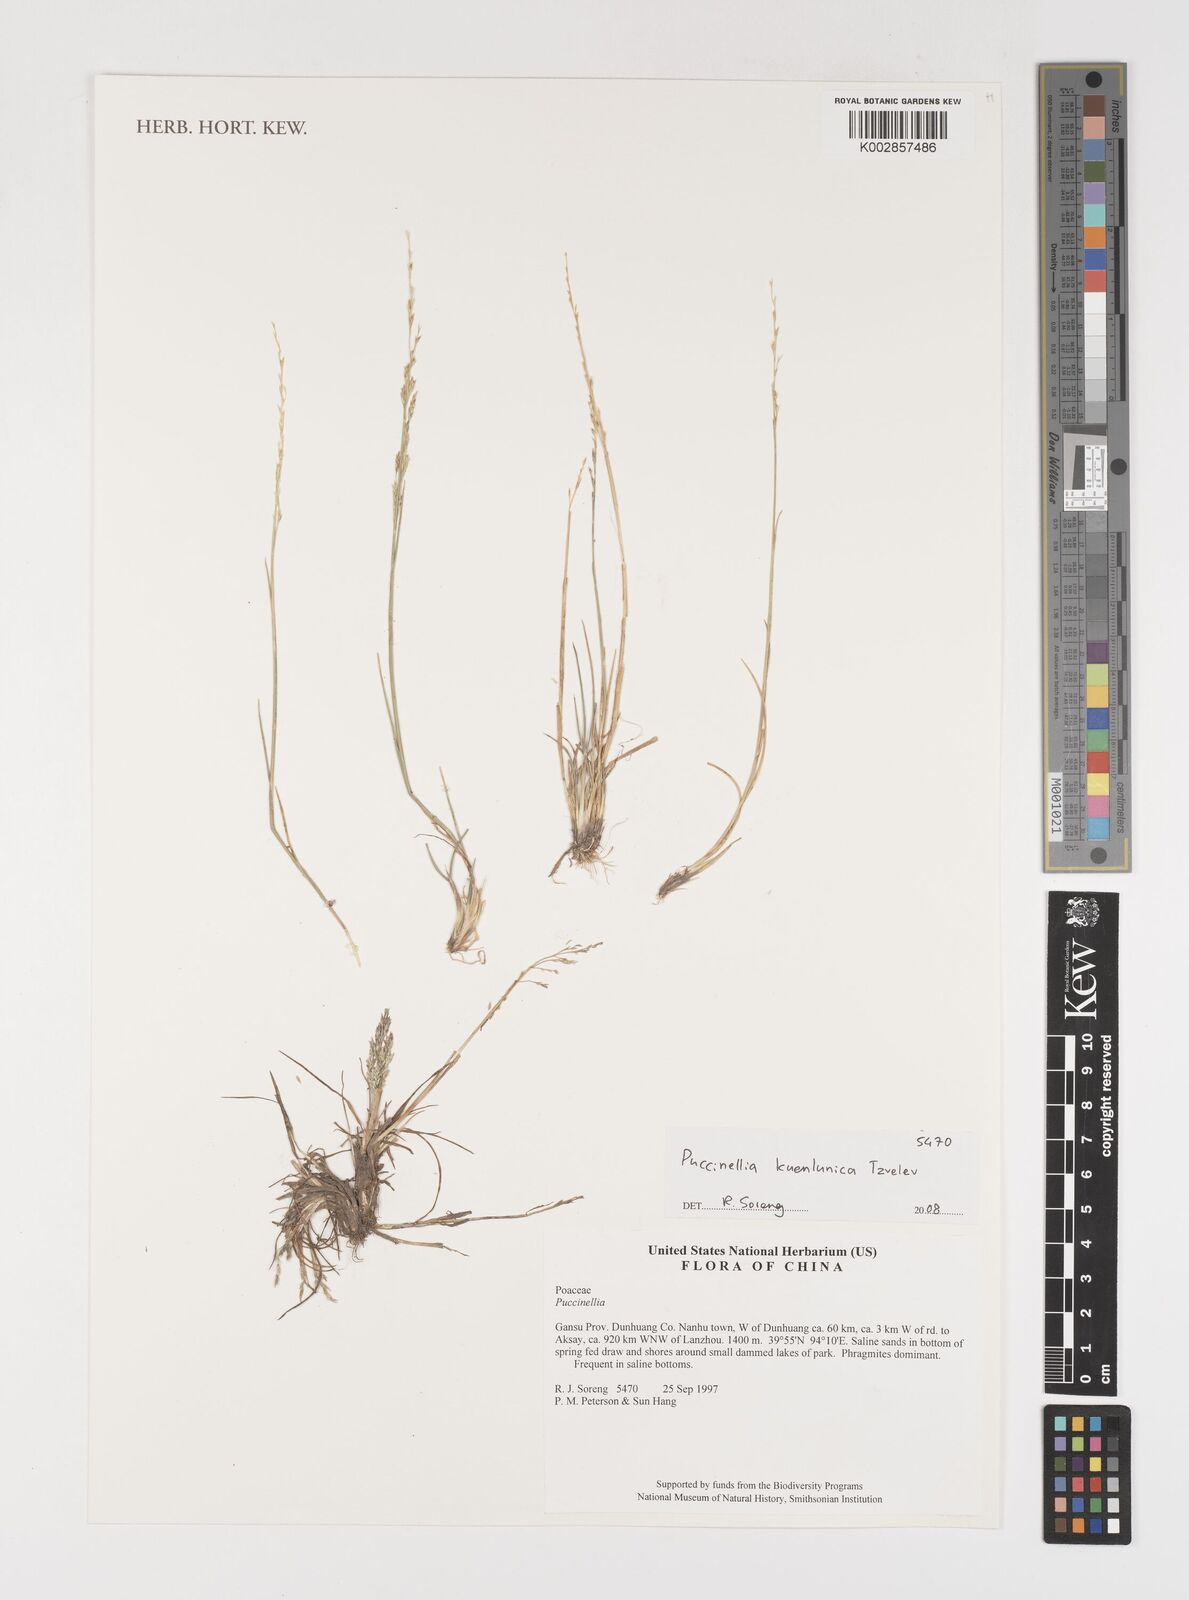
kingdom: Plantae
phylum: Tracheophyta
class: Liliopsida
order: Poales
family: Poaceae
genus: Puccinellia
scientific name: Puccinellia kuenlunica
